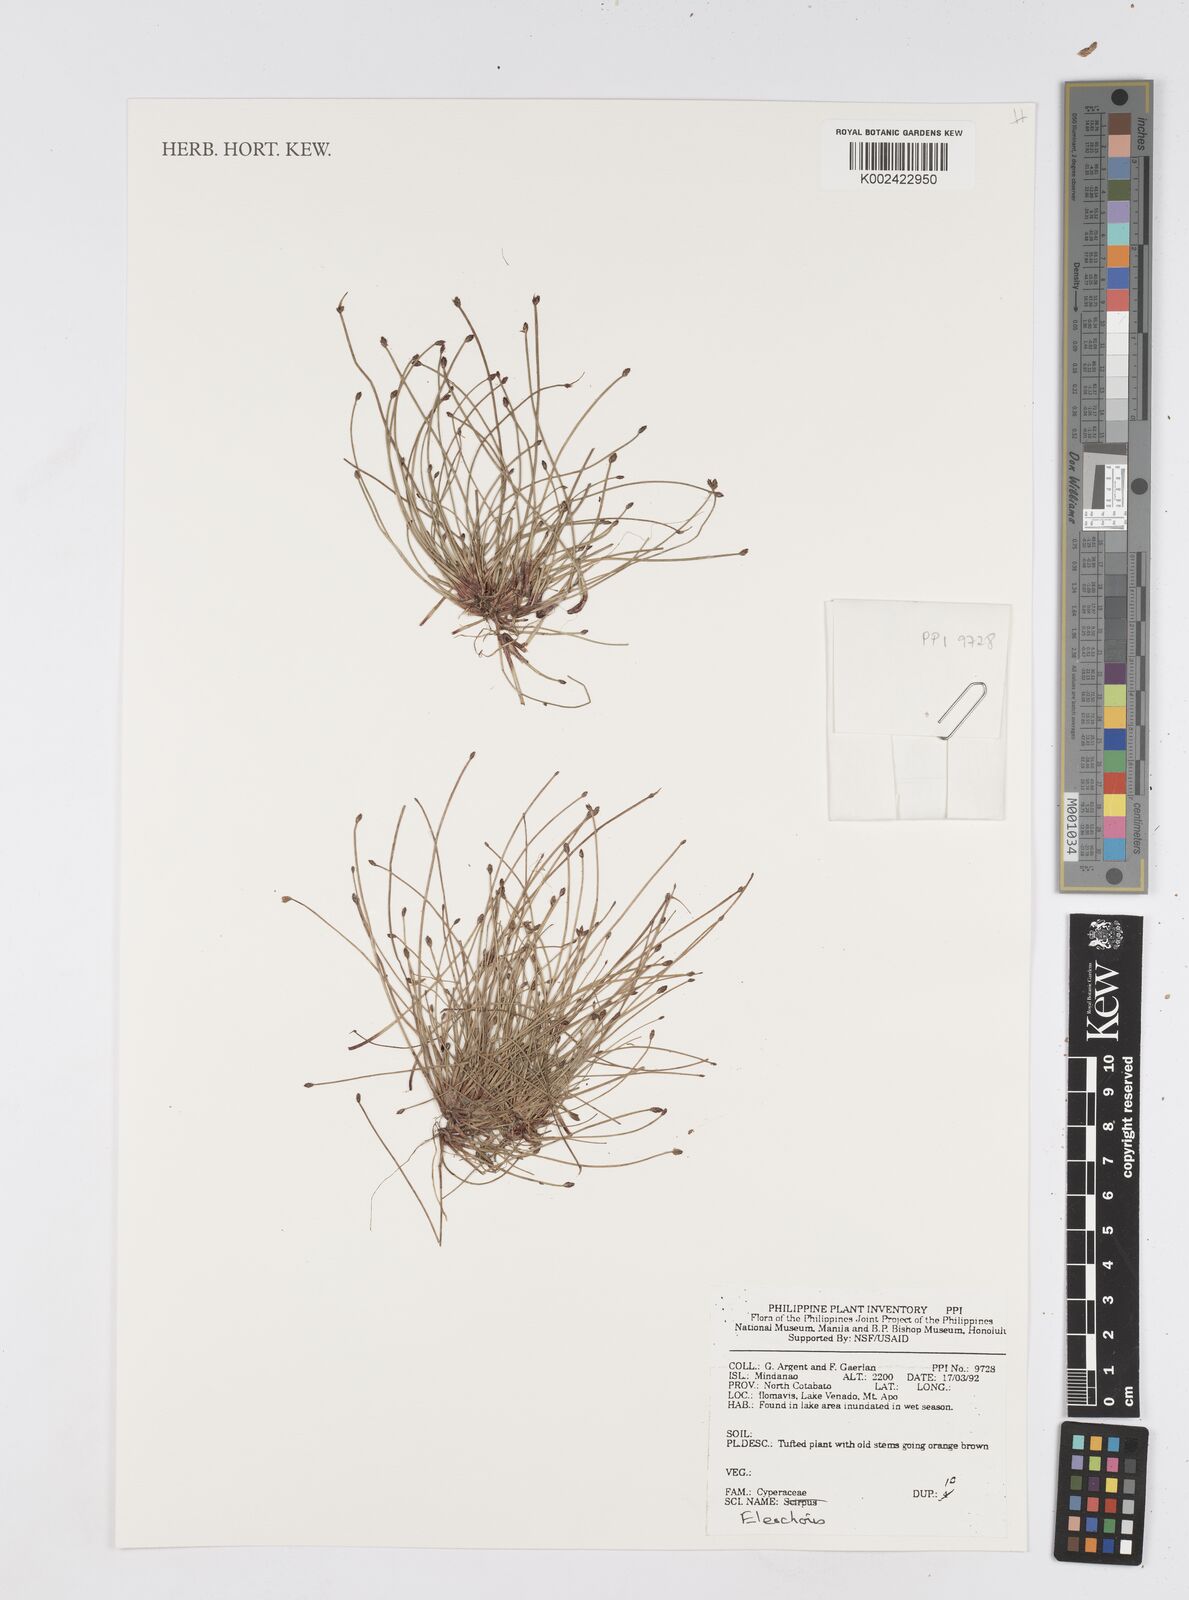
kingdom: Plantae
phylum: Tracheophyta
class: Liliopsida
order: Poales
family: Cyperaceae
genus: Eleocharis
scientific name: Eleocharis
